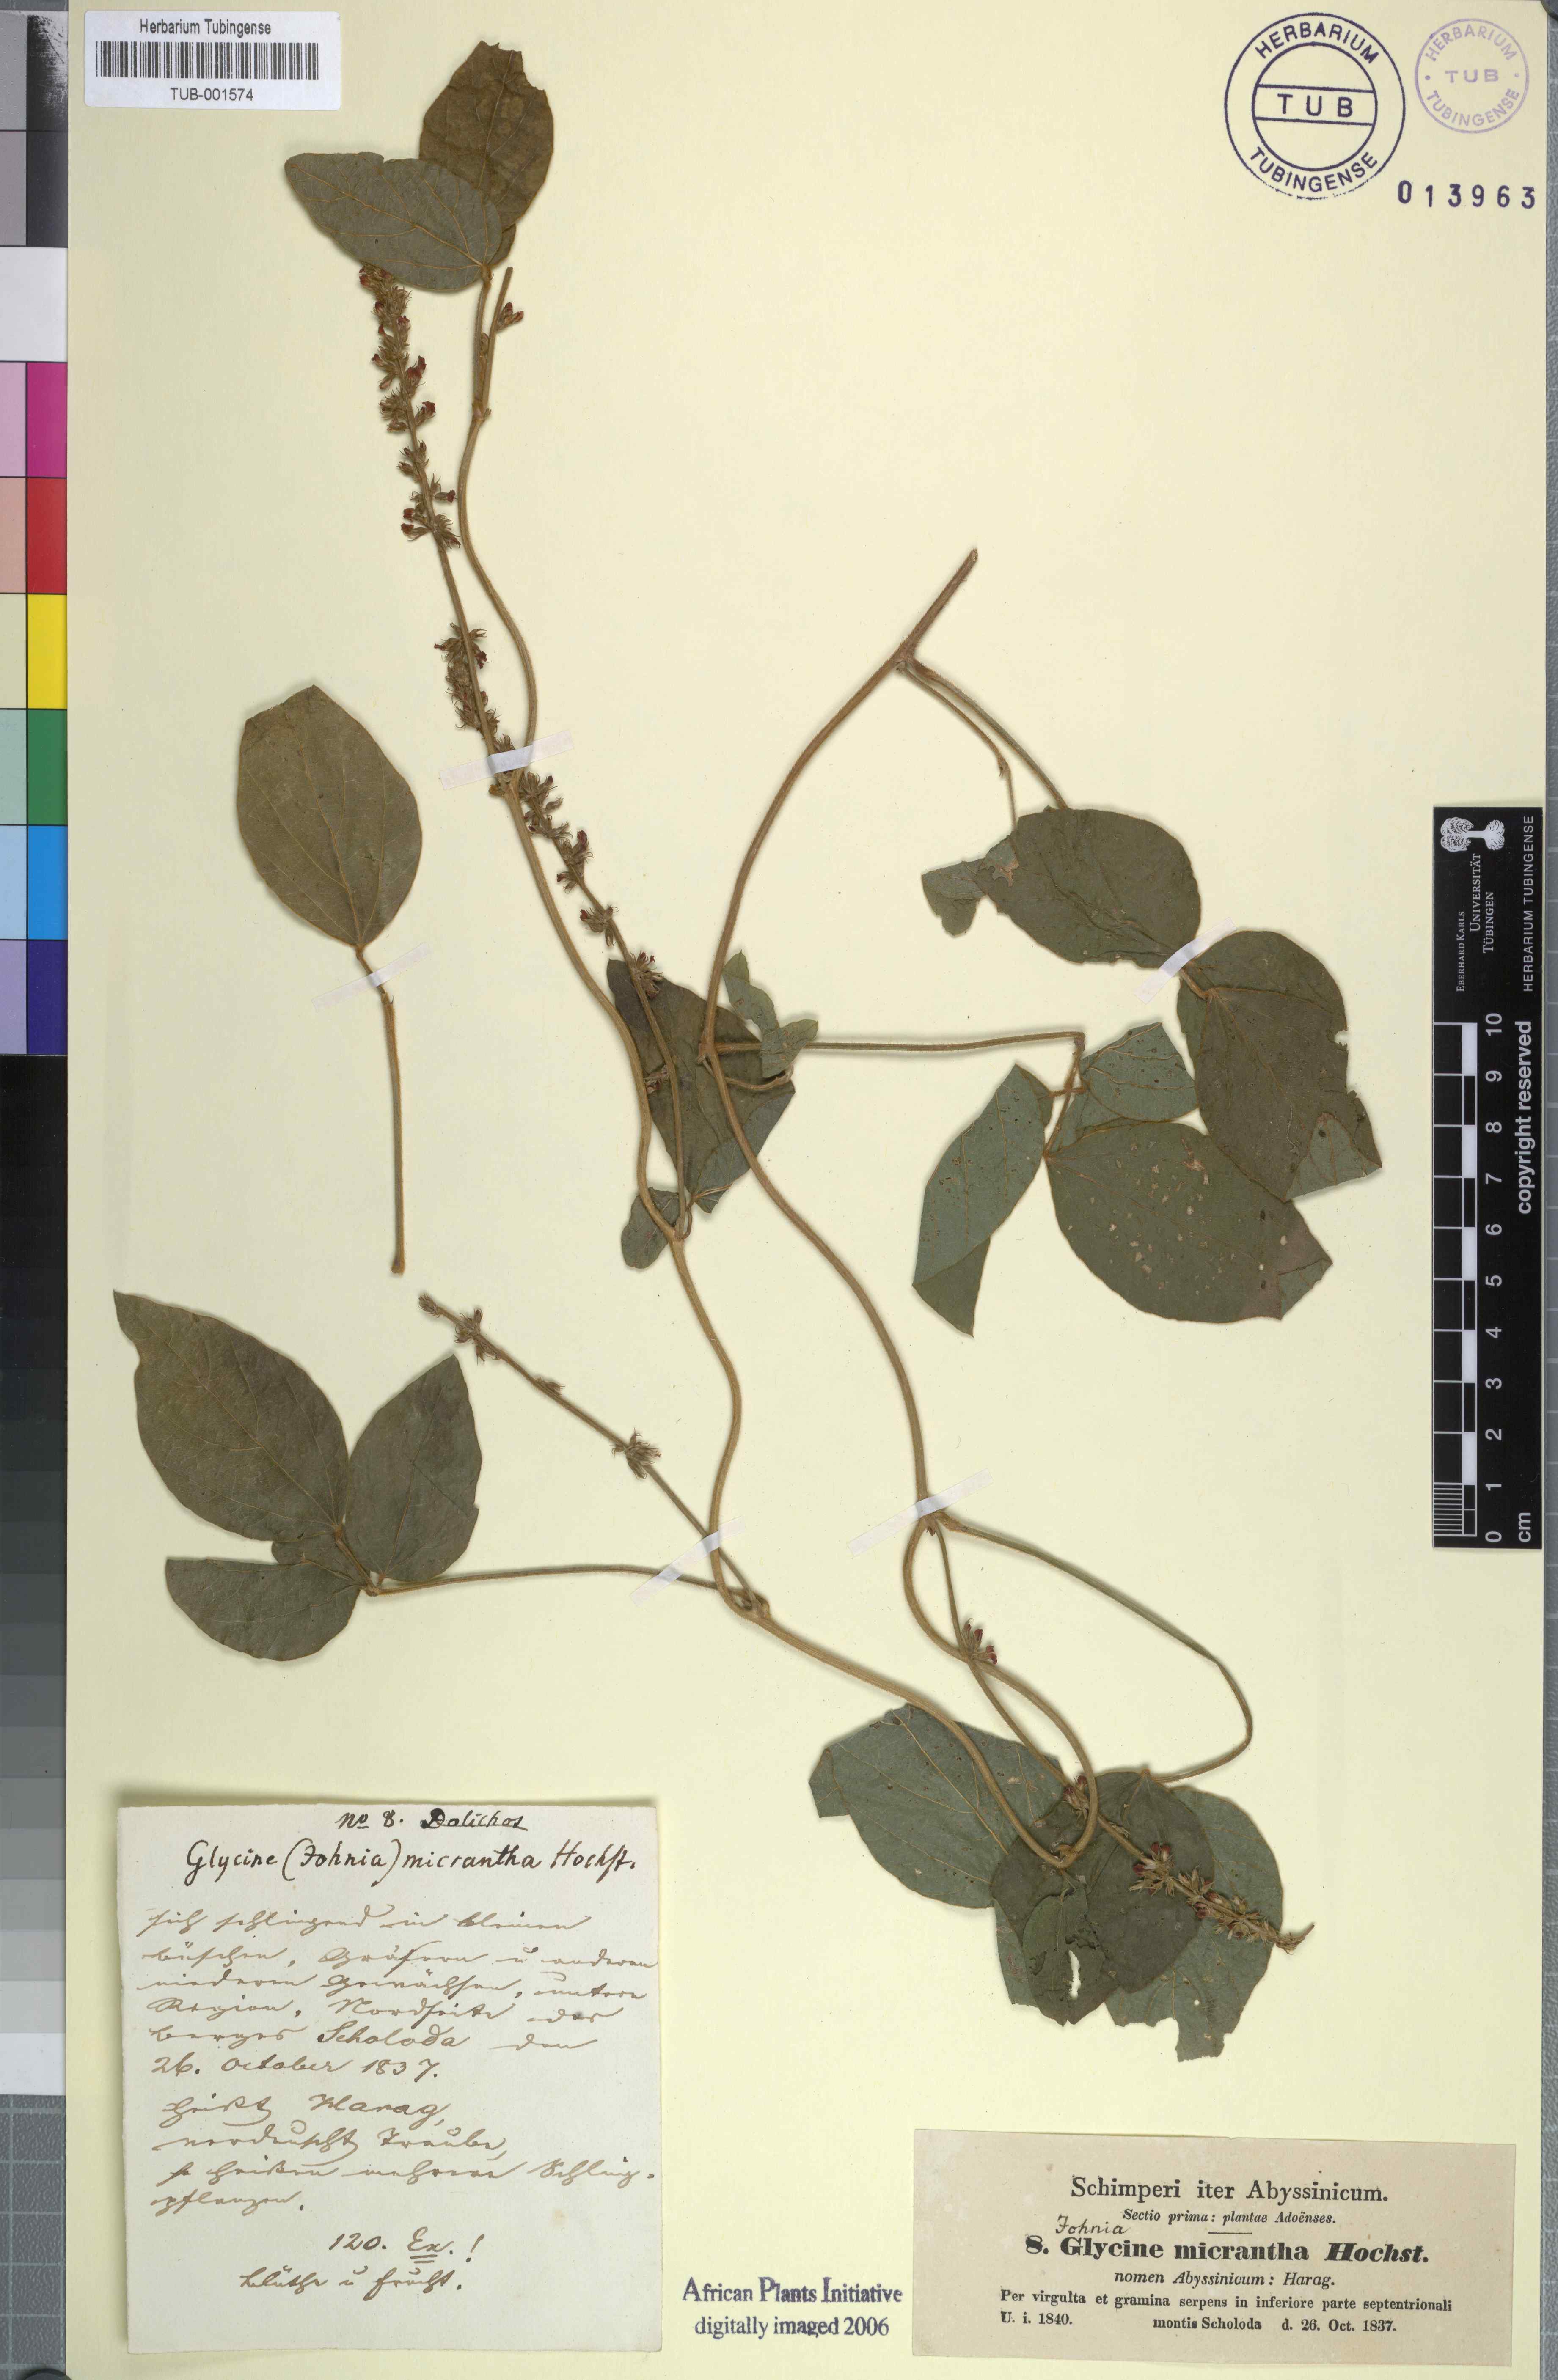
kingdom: Plantae
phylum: Tracheophyta
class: Magnoliopsida
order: Fabales
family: Fabaceae
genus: Pueraria
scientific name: Pueraria montana
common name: Kudzu
